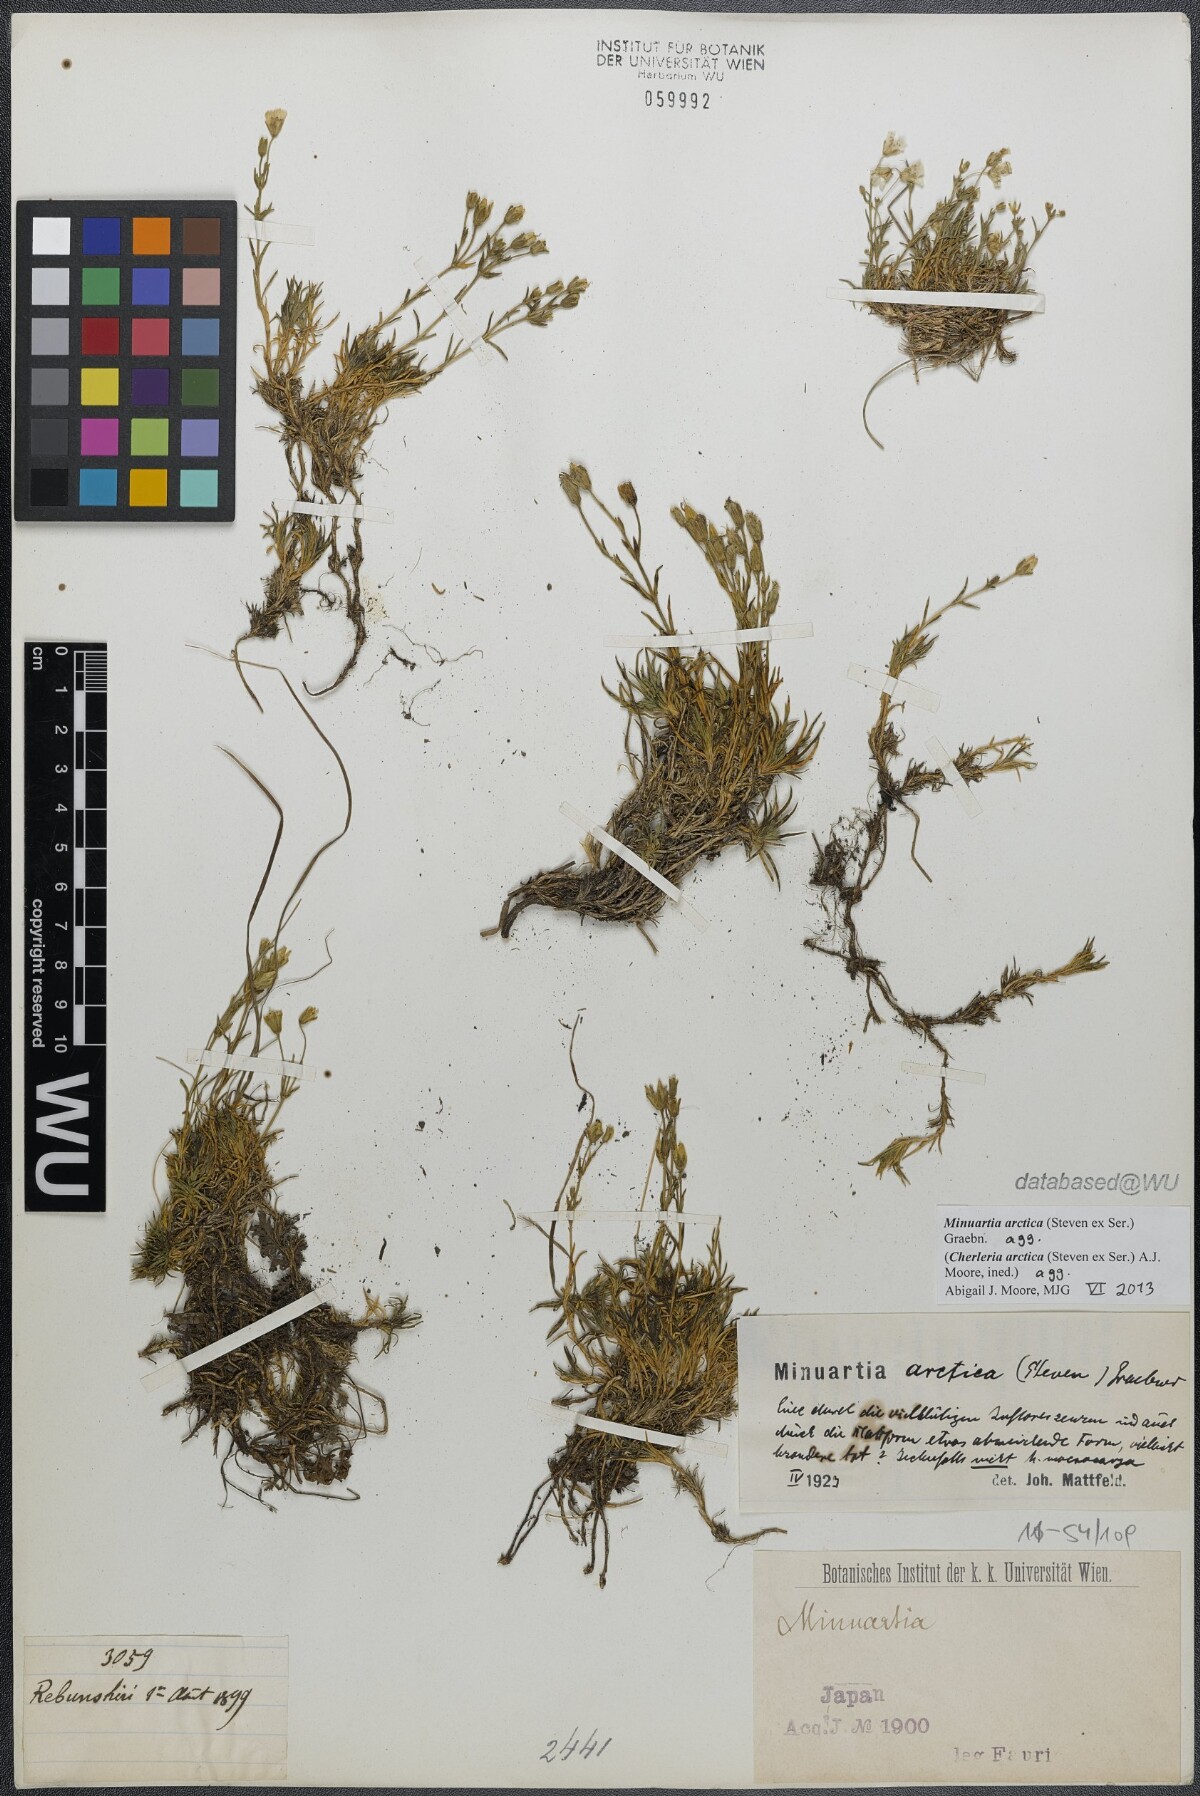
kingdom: Plantae
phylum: Tracheophyta
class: Magnoliopsida
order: Caryophyllales
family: Caryophyllaceae
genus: Cherleria
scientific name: Cherleria arctica
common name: Arctic sandwort
